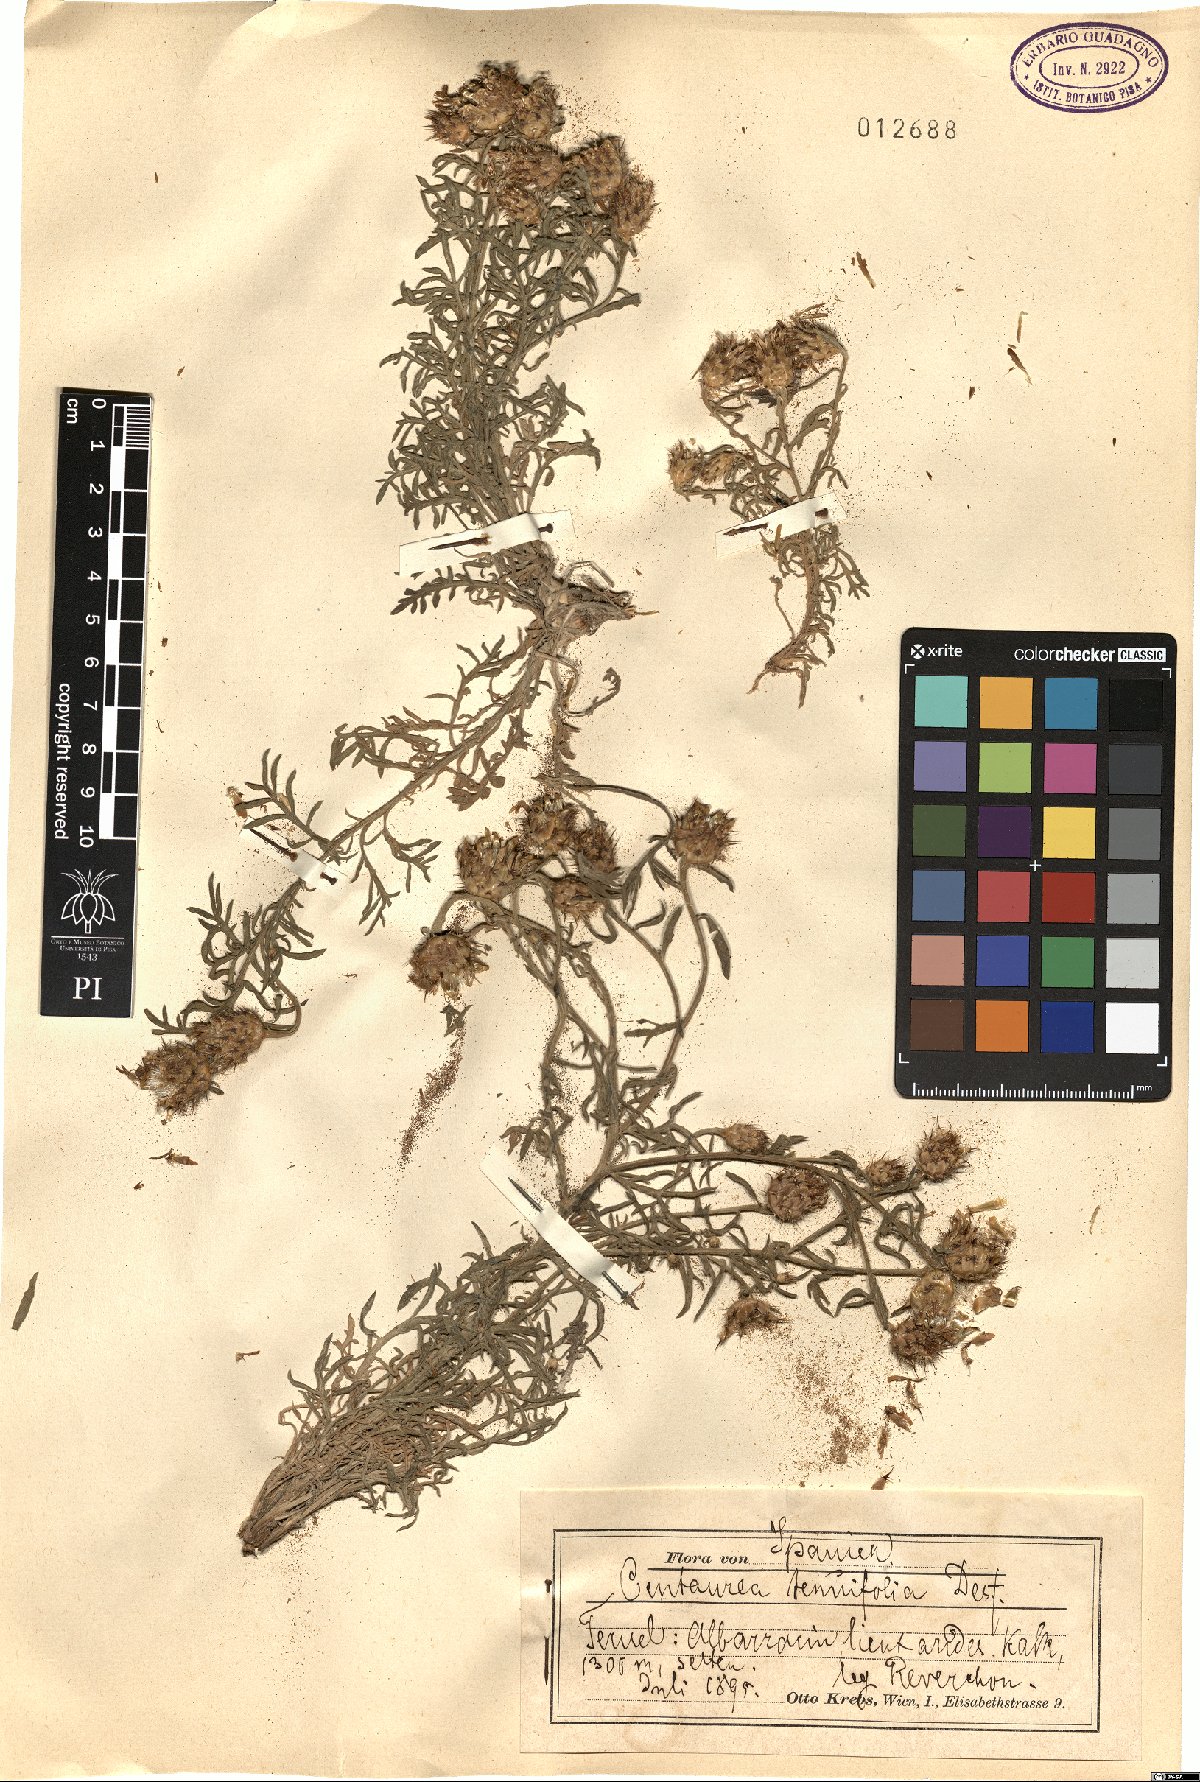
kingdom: Plantae
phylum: Tracheophyta
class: Magnoliopsida
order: Asterales
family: Asteraceae
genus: Centaurea
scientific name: Centaurea resupinata
